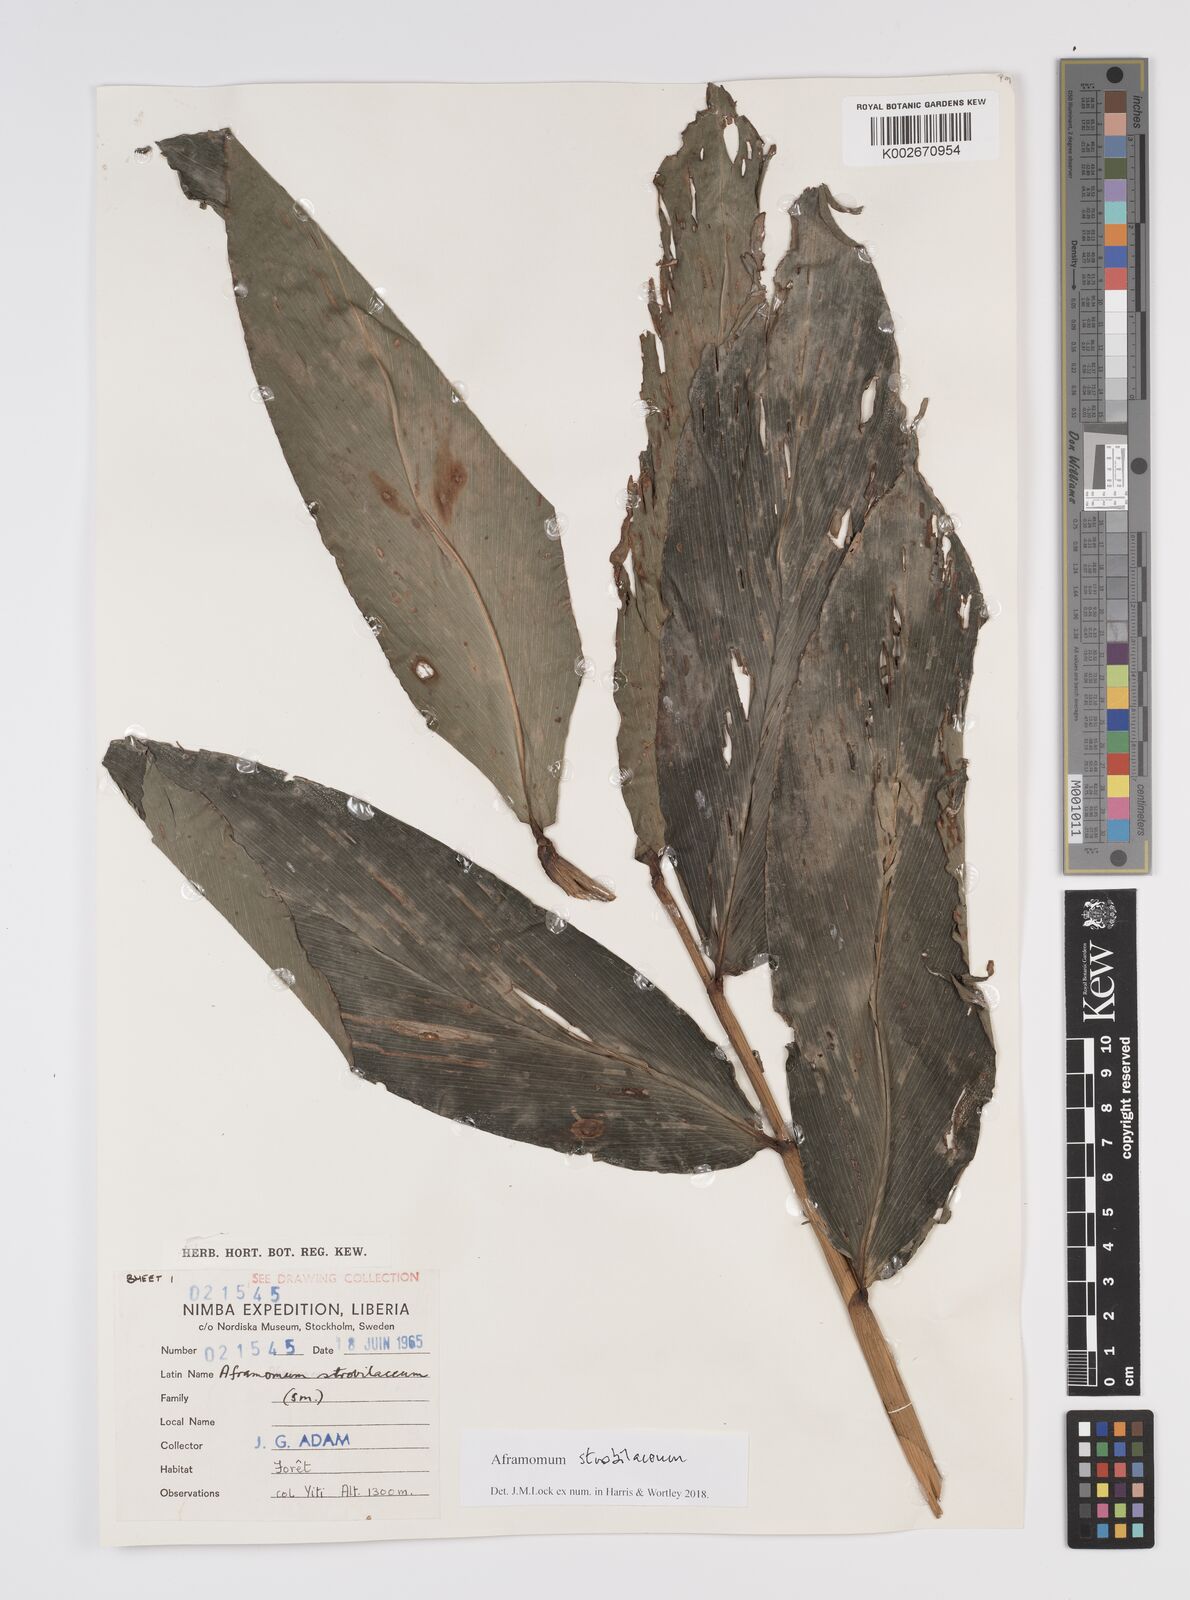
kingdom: Plantae
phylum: Tracheophyta
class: Liliopsida
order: Zingiberales
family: Zingiberaceae
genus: Aframomum
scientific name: Aframomum strobilaceum
